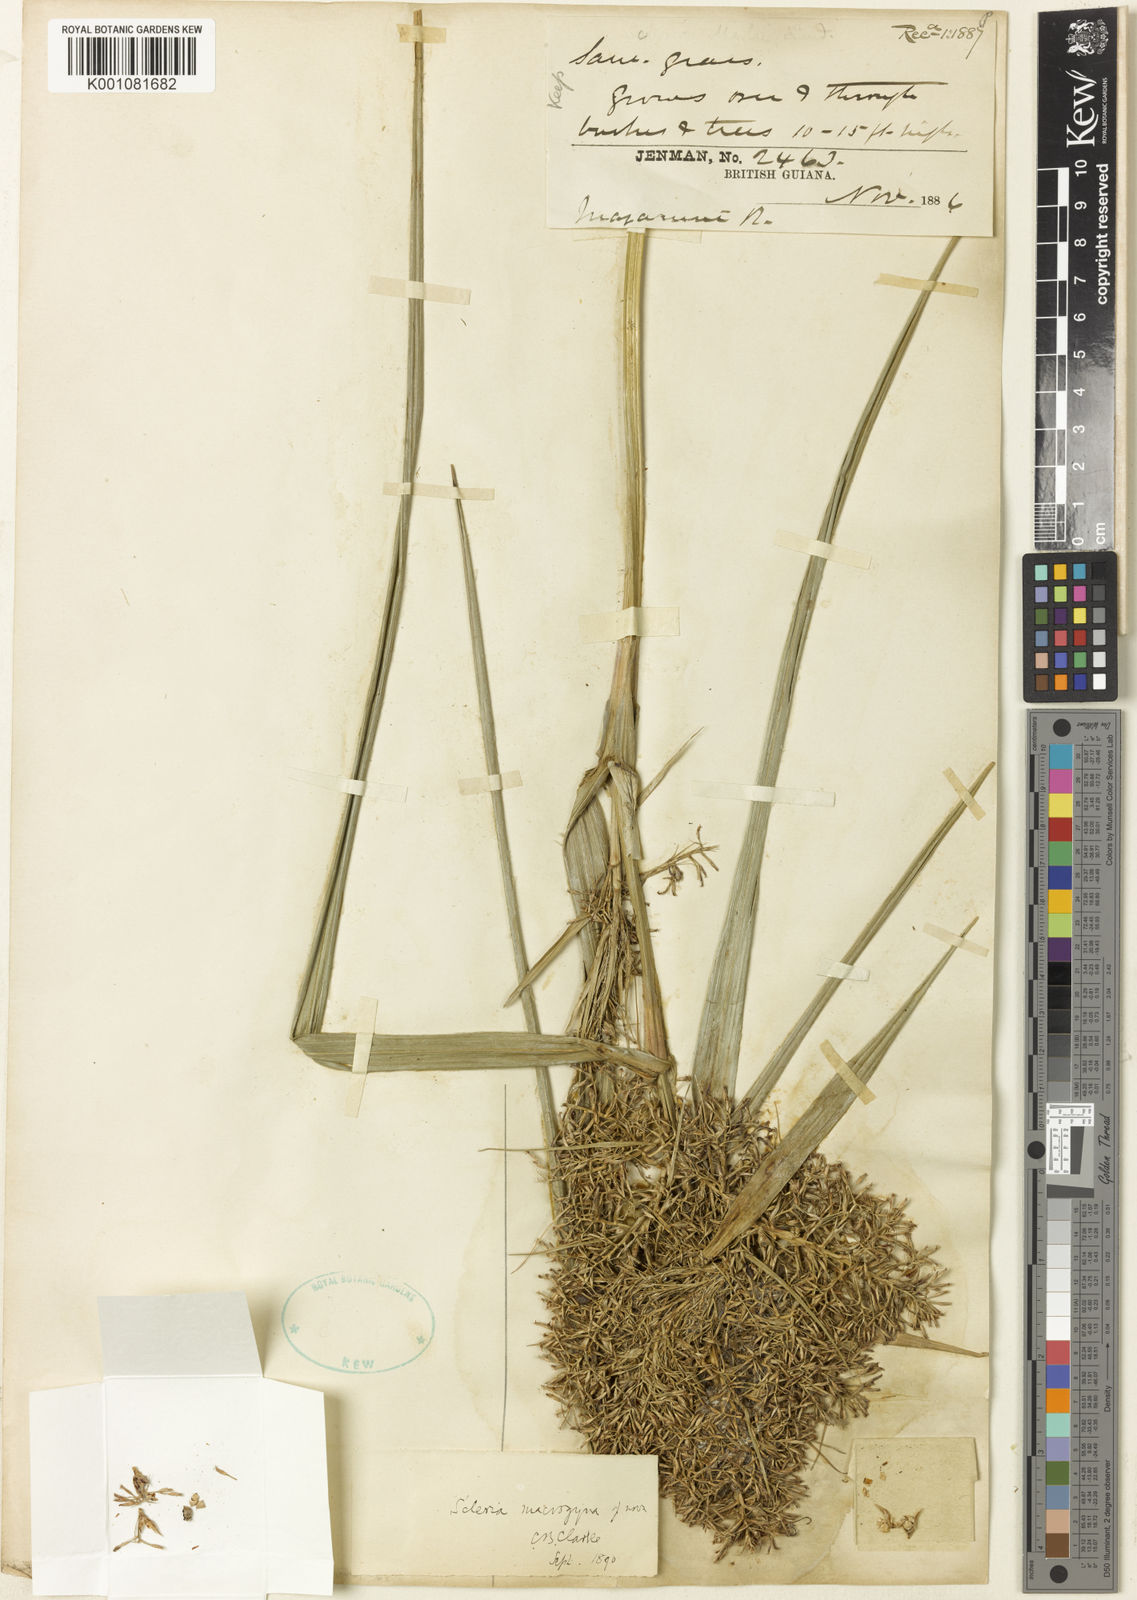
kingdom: Plantae
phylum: Tracheophyta
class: Liliopsida
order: Poales
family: Cyperaceae
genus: Scleria
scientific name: Scleria macrogyne
